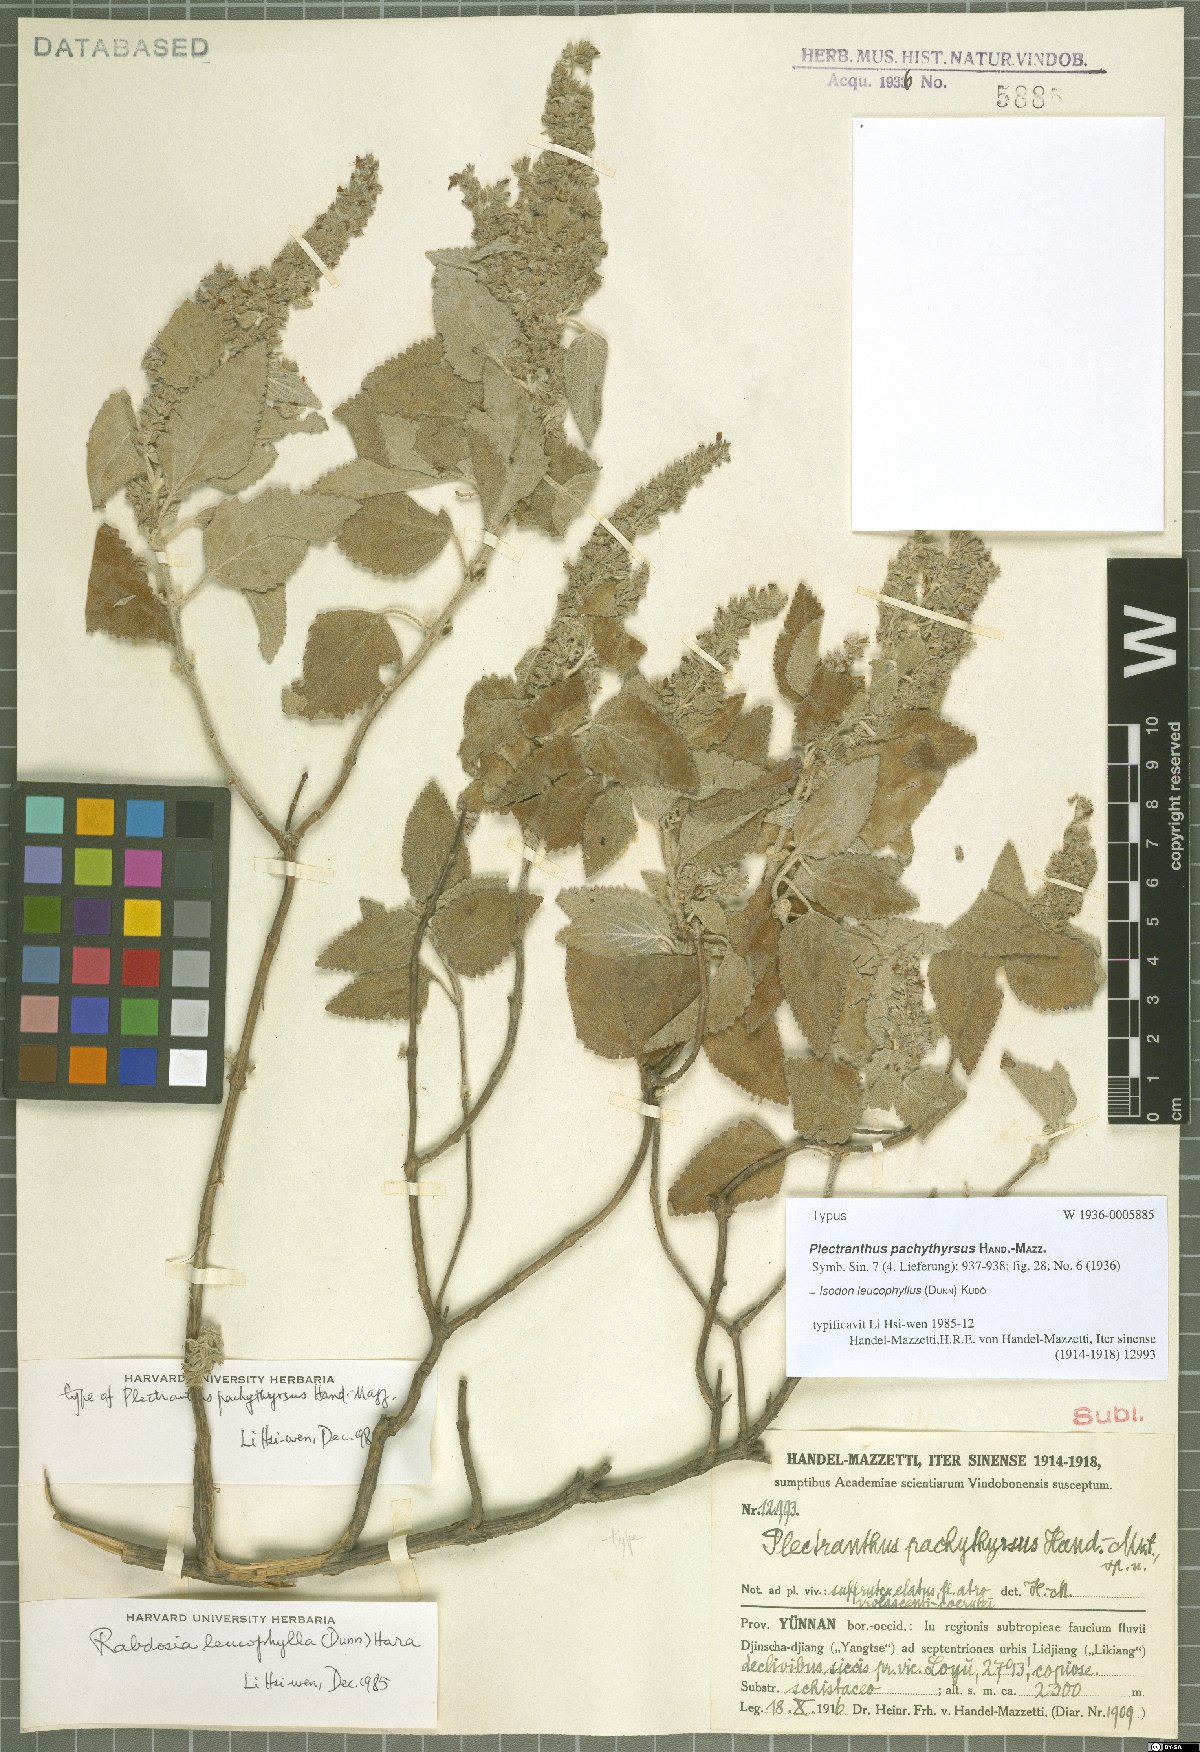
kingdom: Plantae
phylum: Tracheophyta
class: Magnoliopsida
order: Lamiales
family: Lamiaceae
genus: Isodon
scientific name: Isodon leucophyllus
